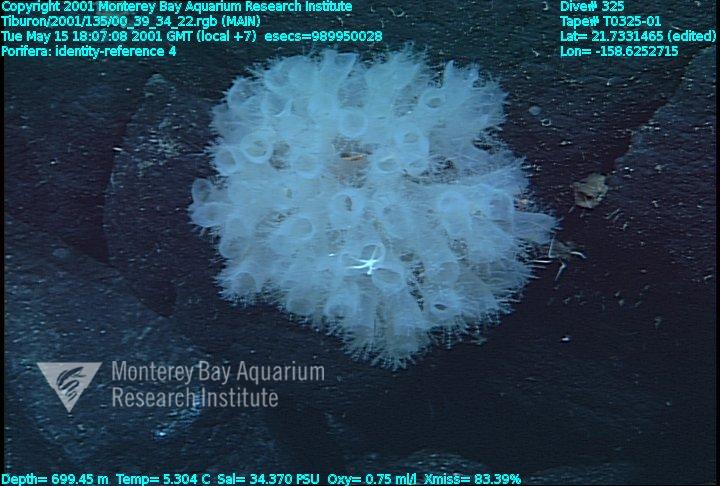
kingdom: Animalia
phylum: Porifera
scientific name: Porifera
